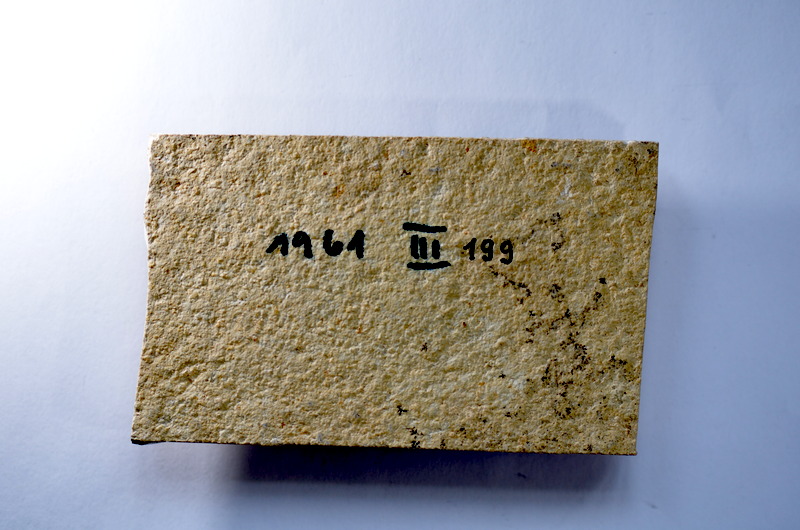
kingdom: Animalia
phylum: Chordata
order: Salmoniformes
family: Orthogonikleithridae
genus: Leptolepides
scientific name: Leptolepides
